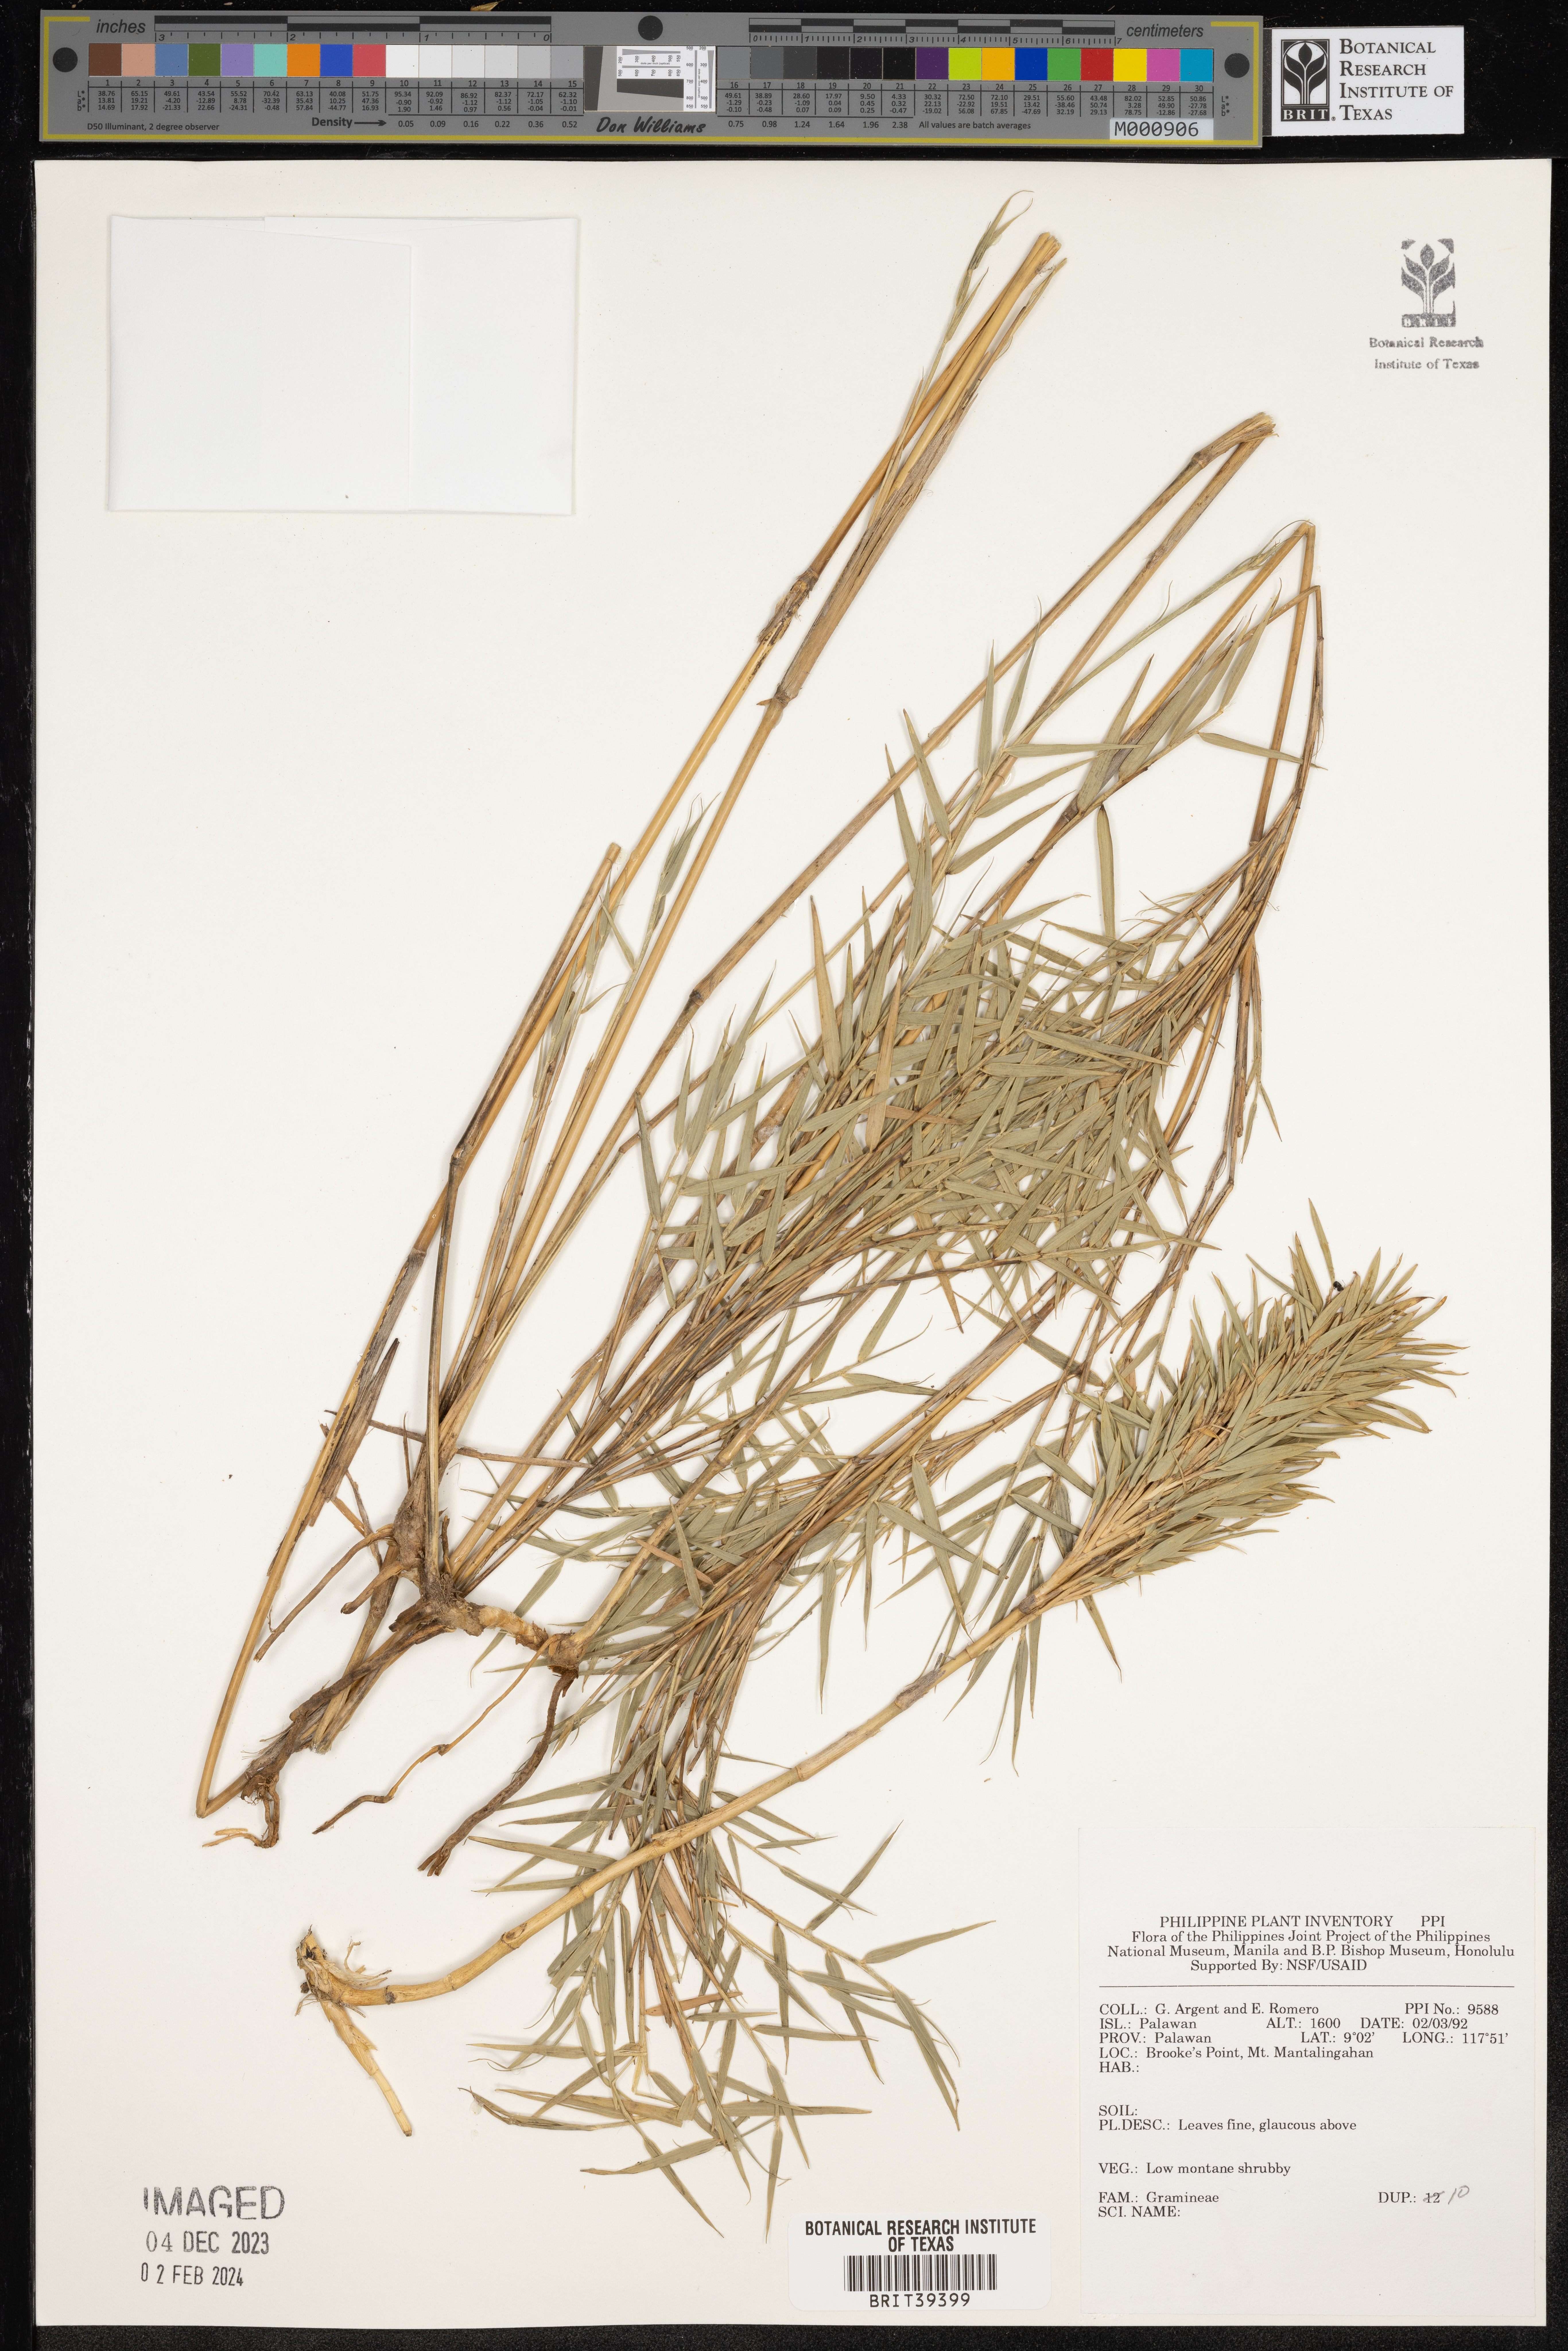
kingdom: Plantae
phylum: Tracheophyta
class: Liliopsida
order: Poales
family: Poaceae
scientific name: Poaceae
